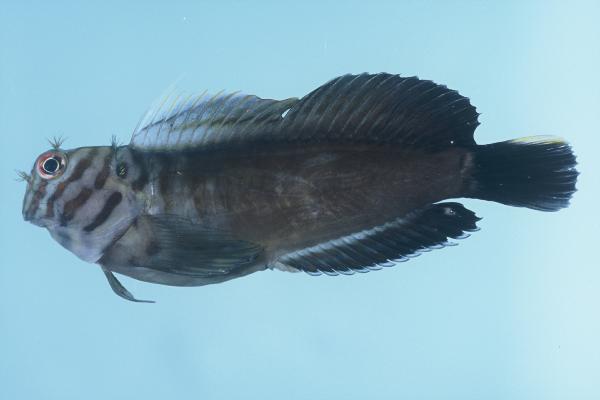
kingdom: Animalia
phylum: Chordata
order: Perciformes
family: Blenniidae
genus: Cirripectes
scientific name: Cirripectes castaneus
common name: Chestnut blenny
